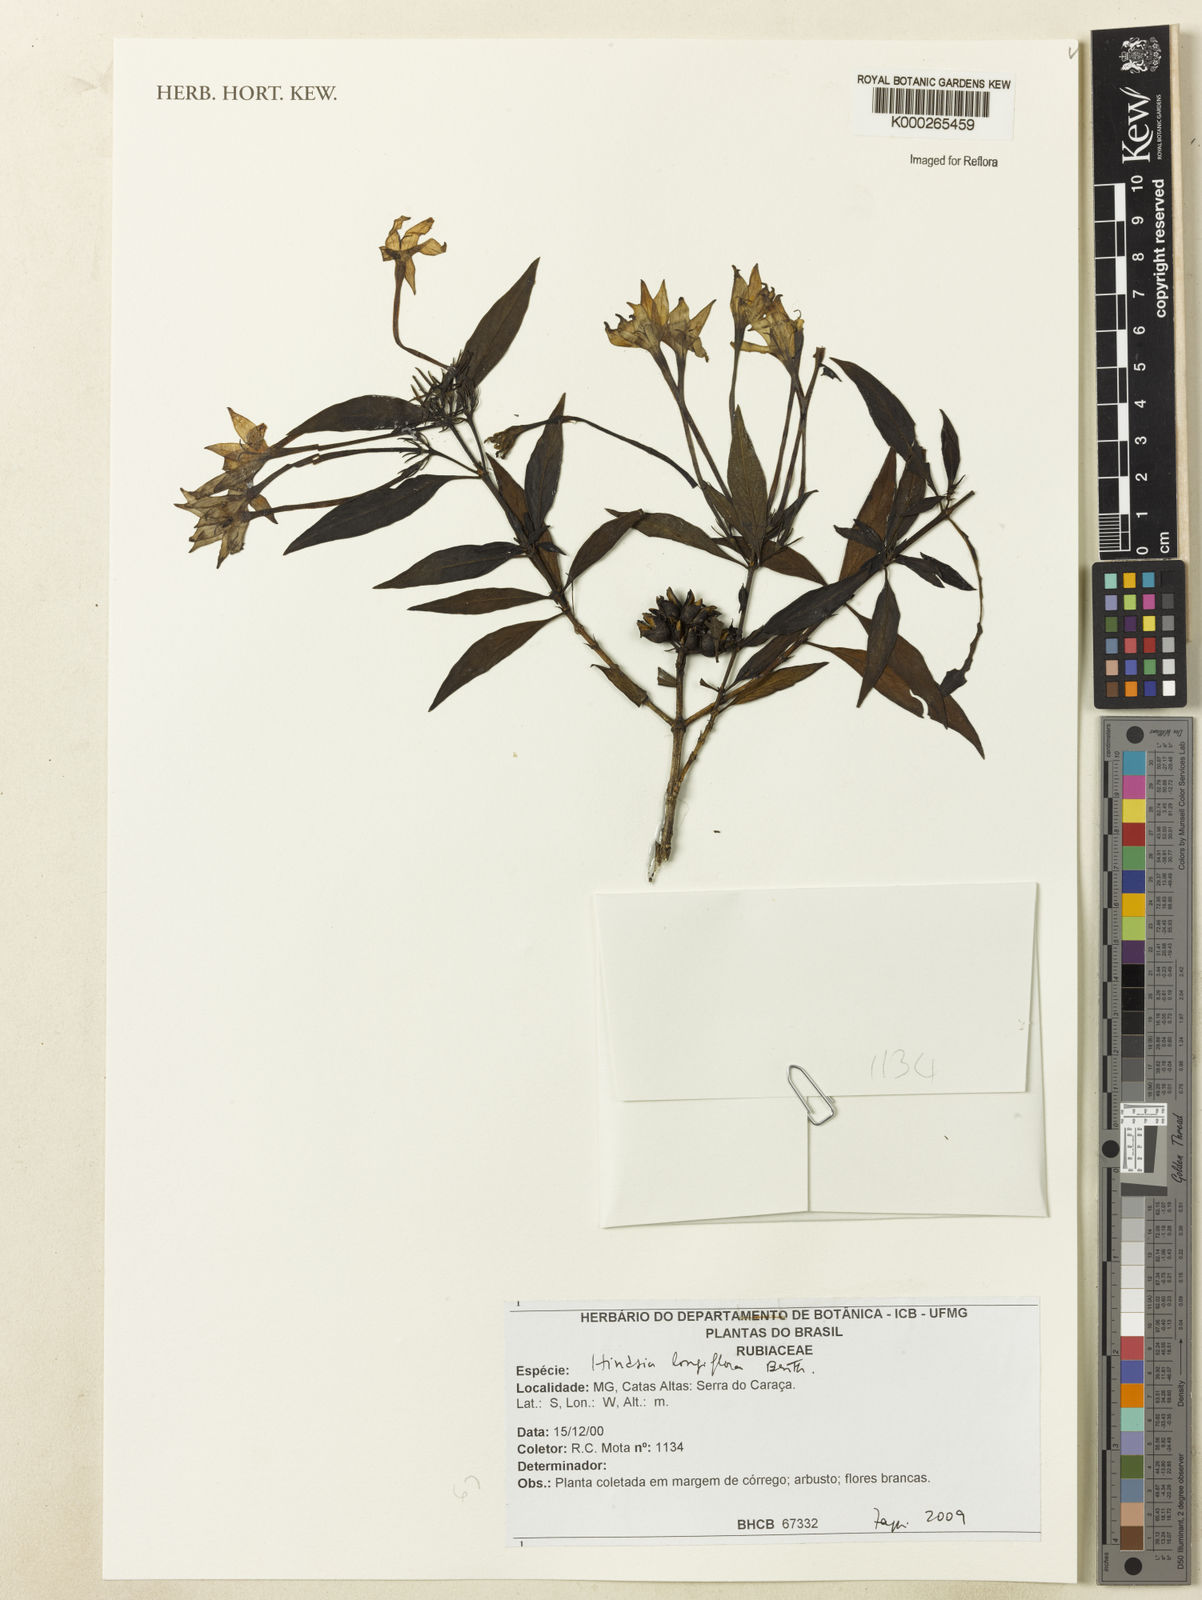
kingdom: Plantae
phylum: Tracheophyta
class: Magnoliopsida
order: Gentianales
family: Rubiaceae
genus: Hindsia
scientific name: Hindsia longiflora
